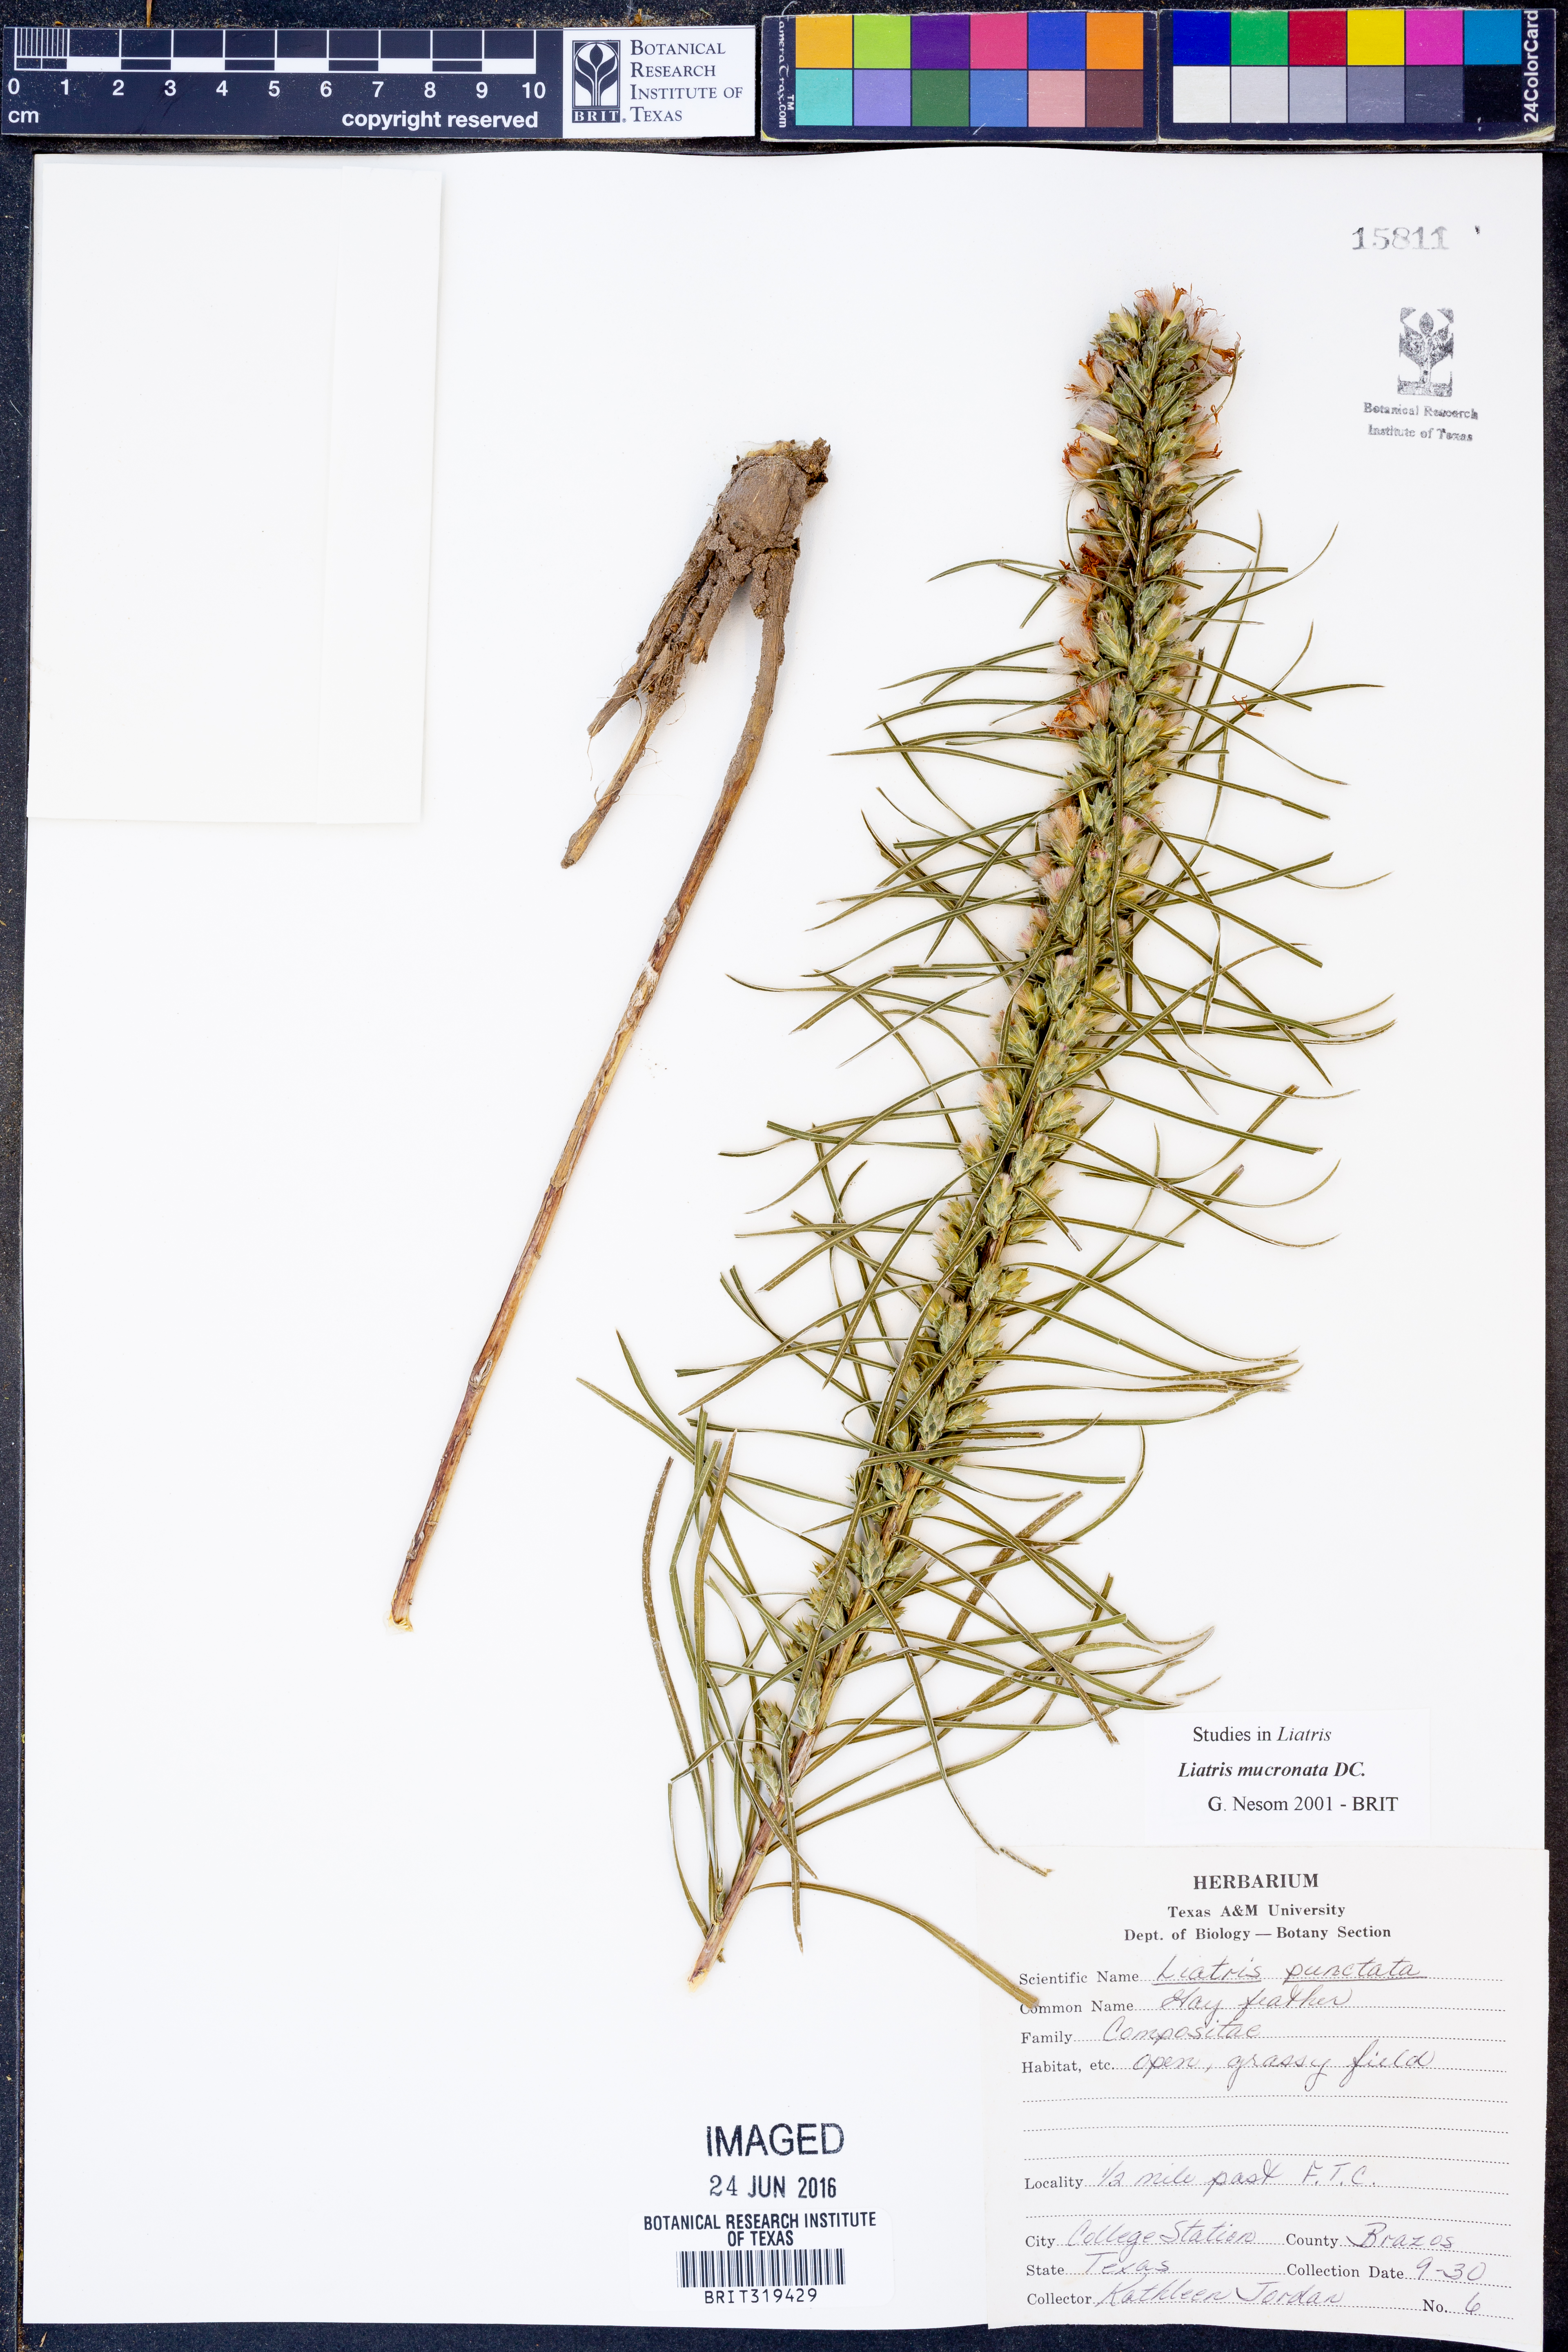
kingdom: Plantae
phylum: Tracheophyta
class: Magnoliopsida
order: Asterales
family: Asteraceae
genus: Liatris
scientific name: Liatris mucronata
